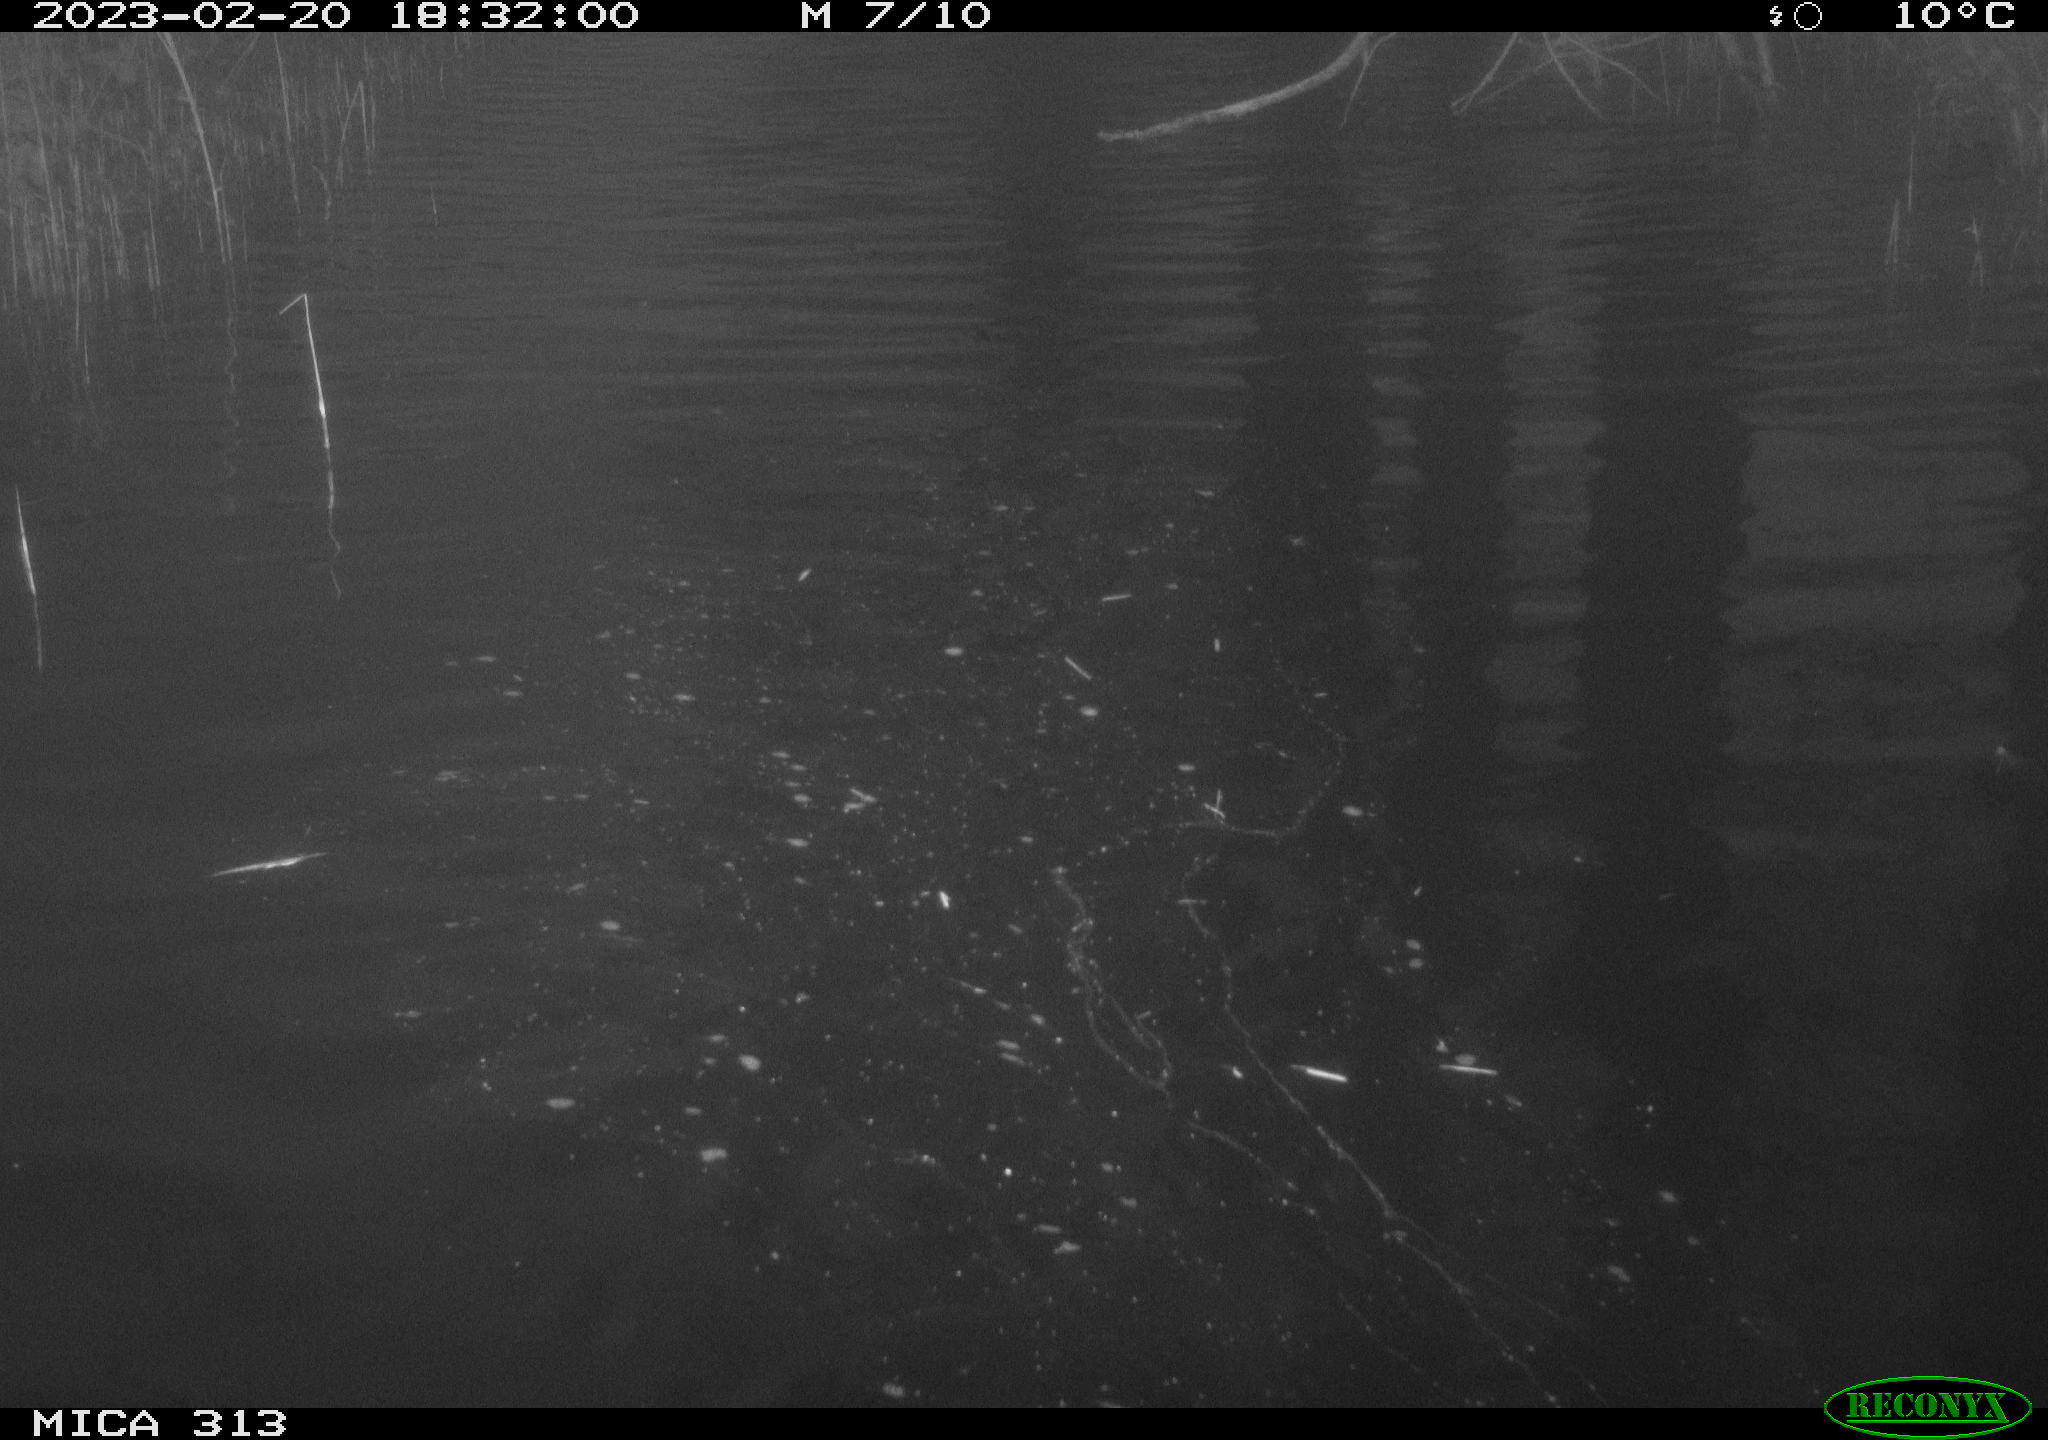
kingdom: Animalia
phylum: Chordata
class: Aves
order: Anseriformes
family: Anatidae
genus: Anas
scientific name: Anas
